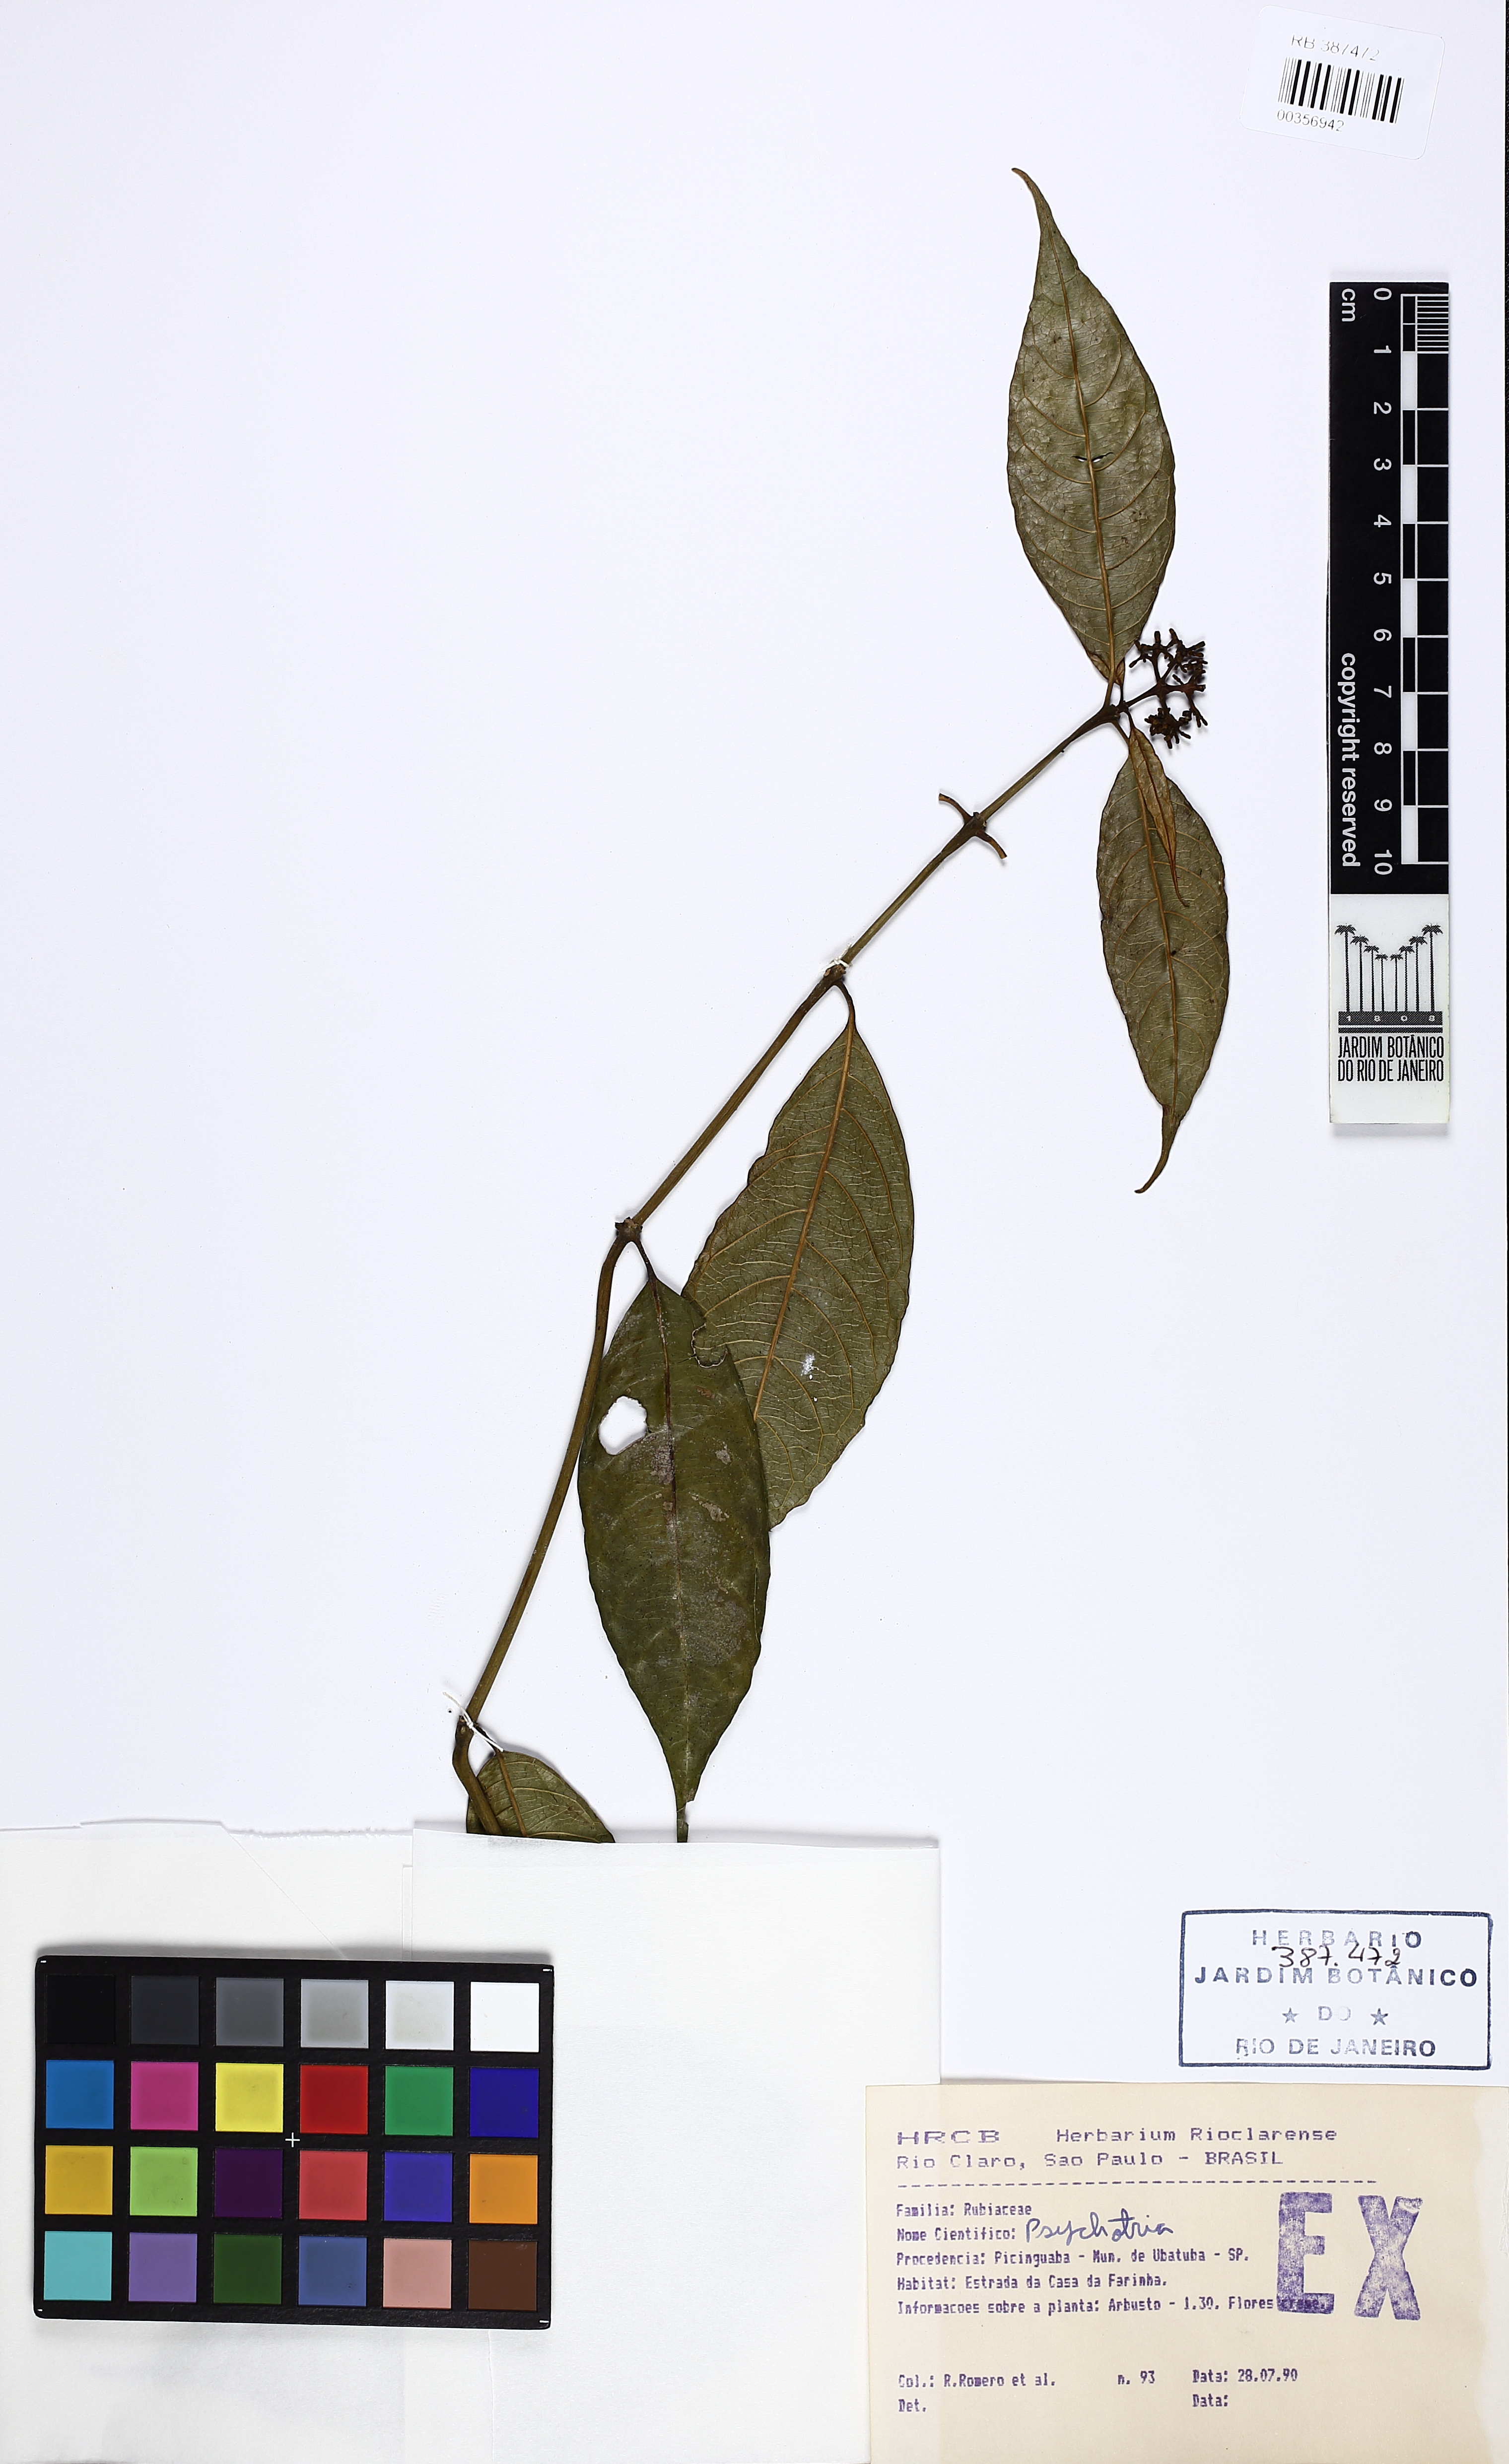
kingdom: Plantae
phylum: Tracheophyta
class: Magnoliopsida
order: Gentianales
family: Rubiaceae
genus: Psychotria
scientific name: Psychotria leitana
